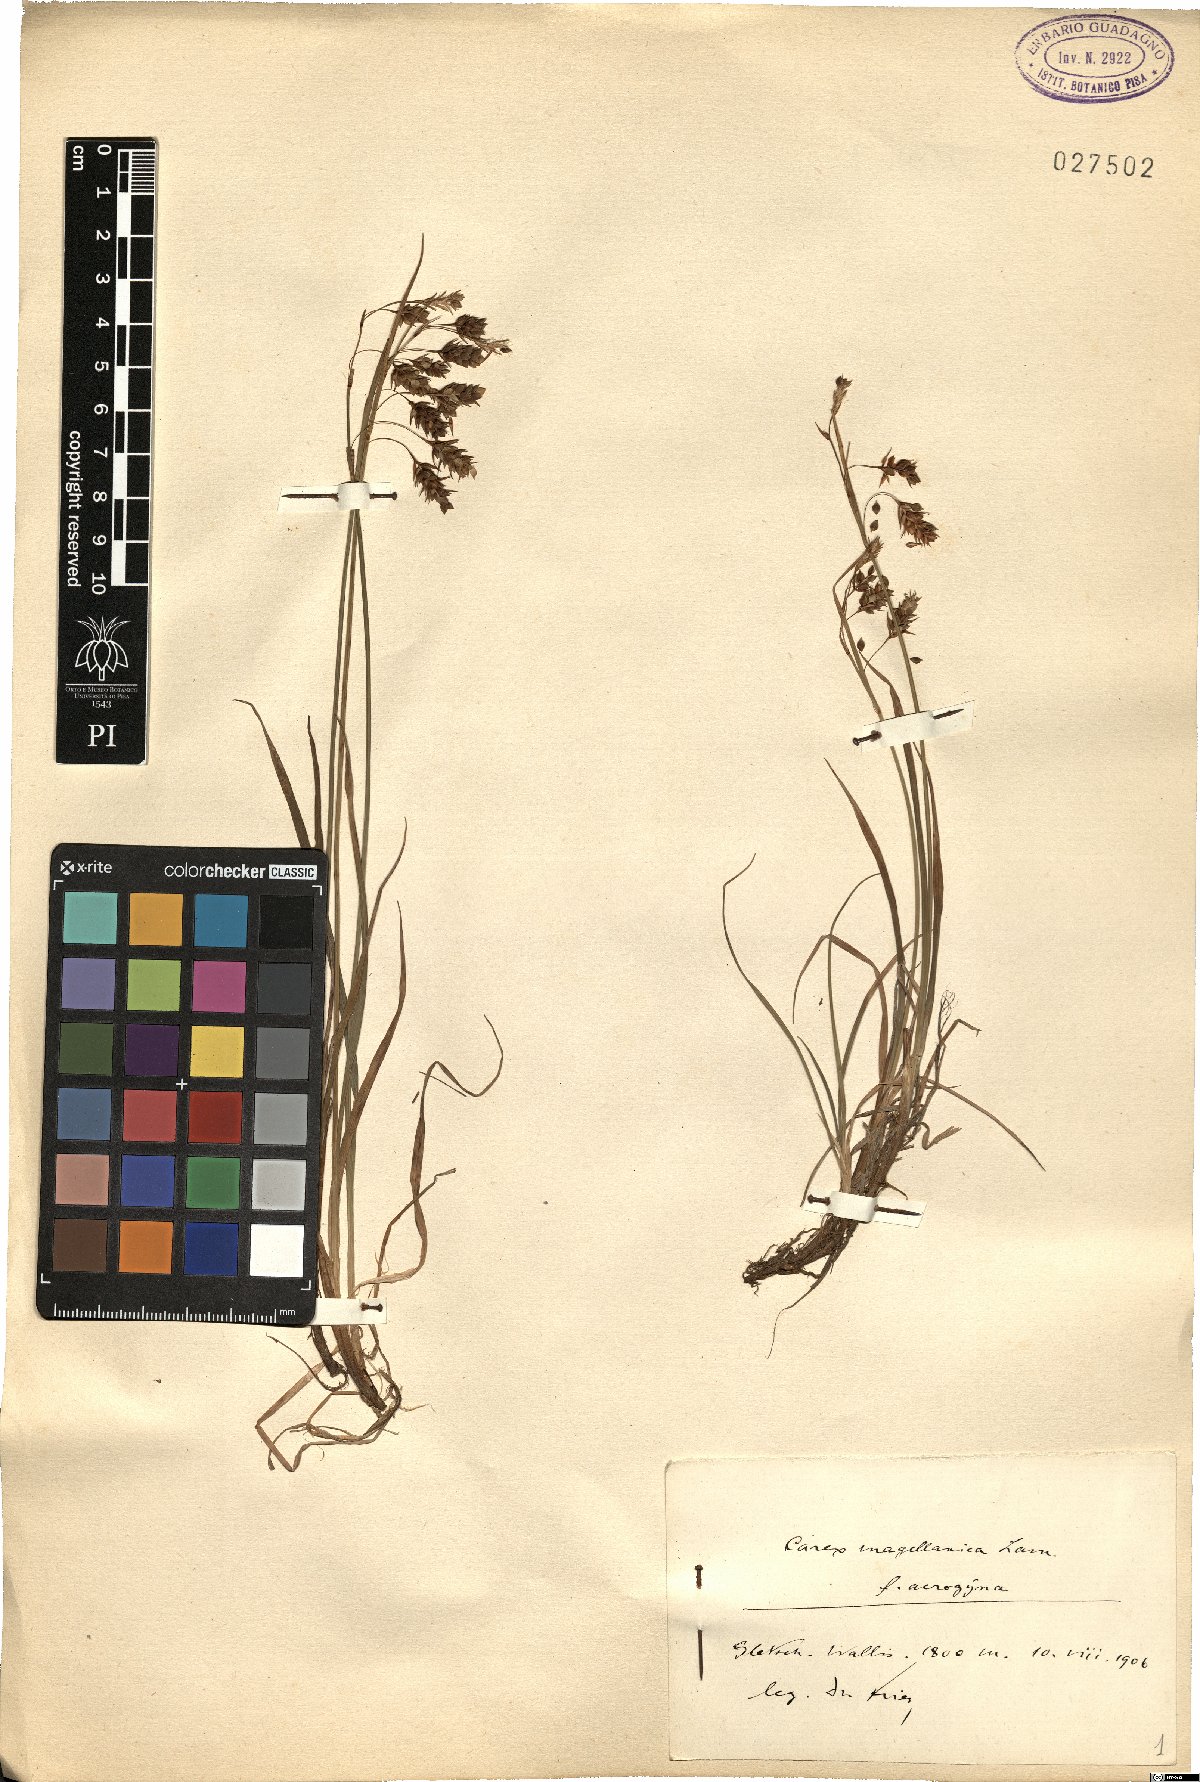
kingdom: Plantae
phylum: Tracheophyta
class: Liliopsida
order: Poales
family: Cyperaceae
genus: Carex
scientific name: Carex magellanica
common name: Bog sedge
